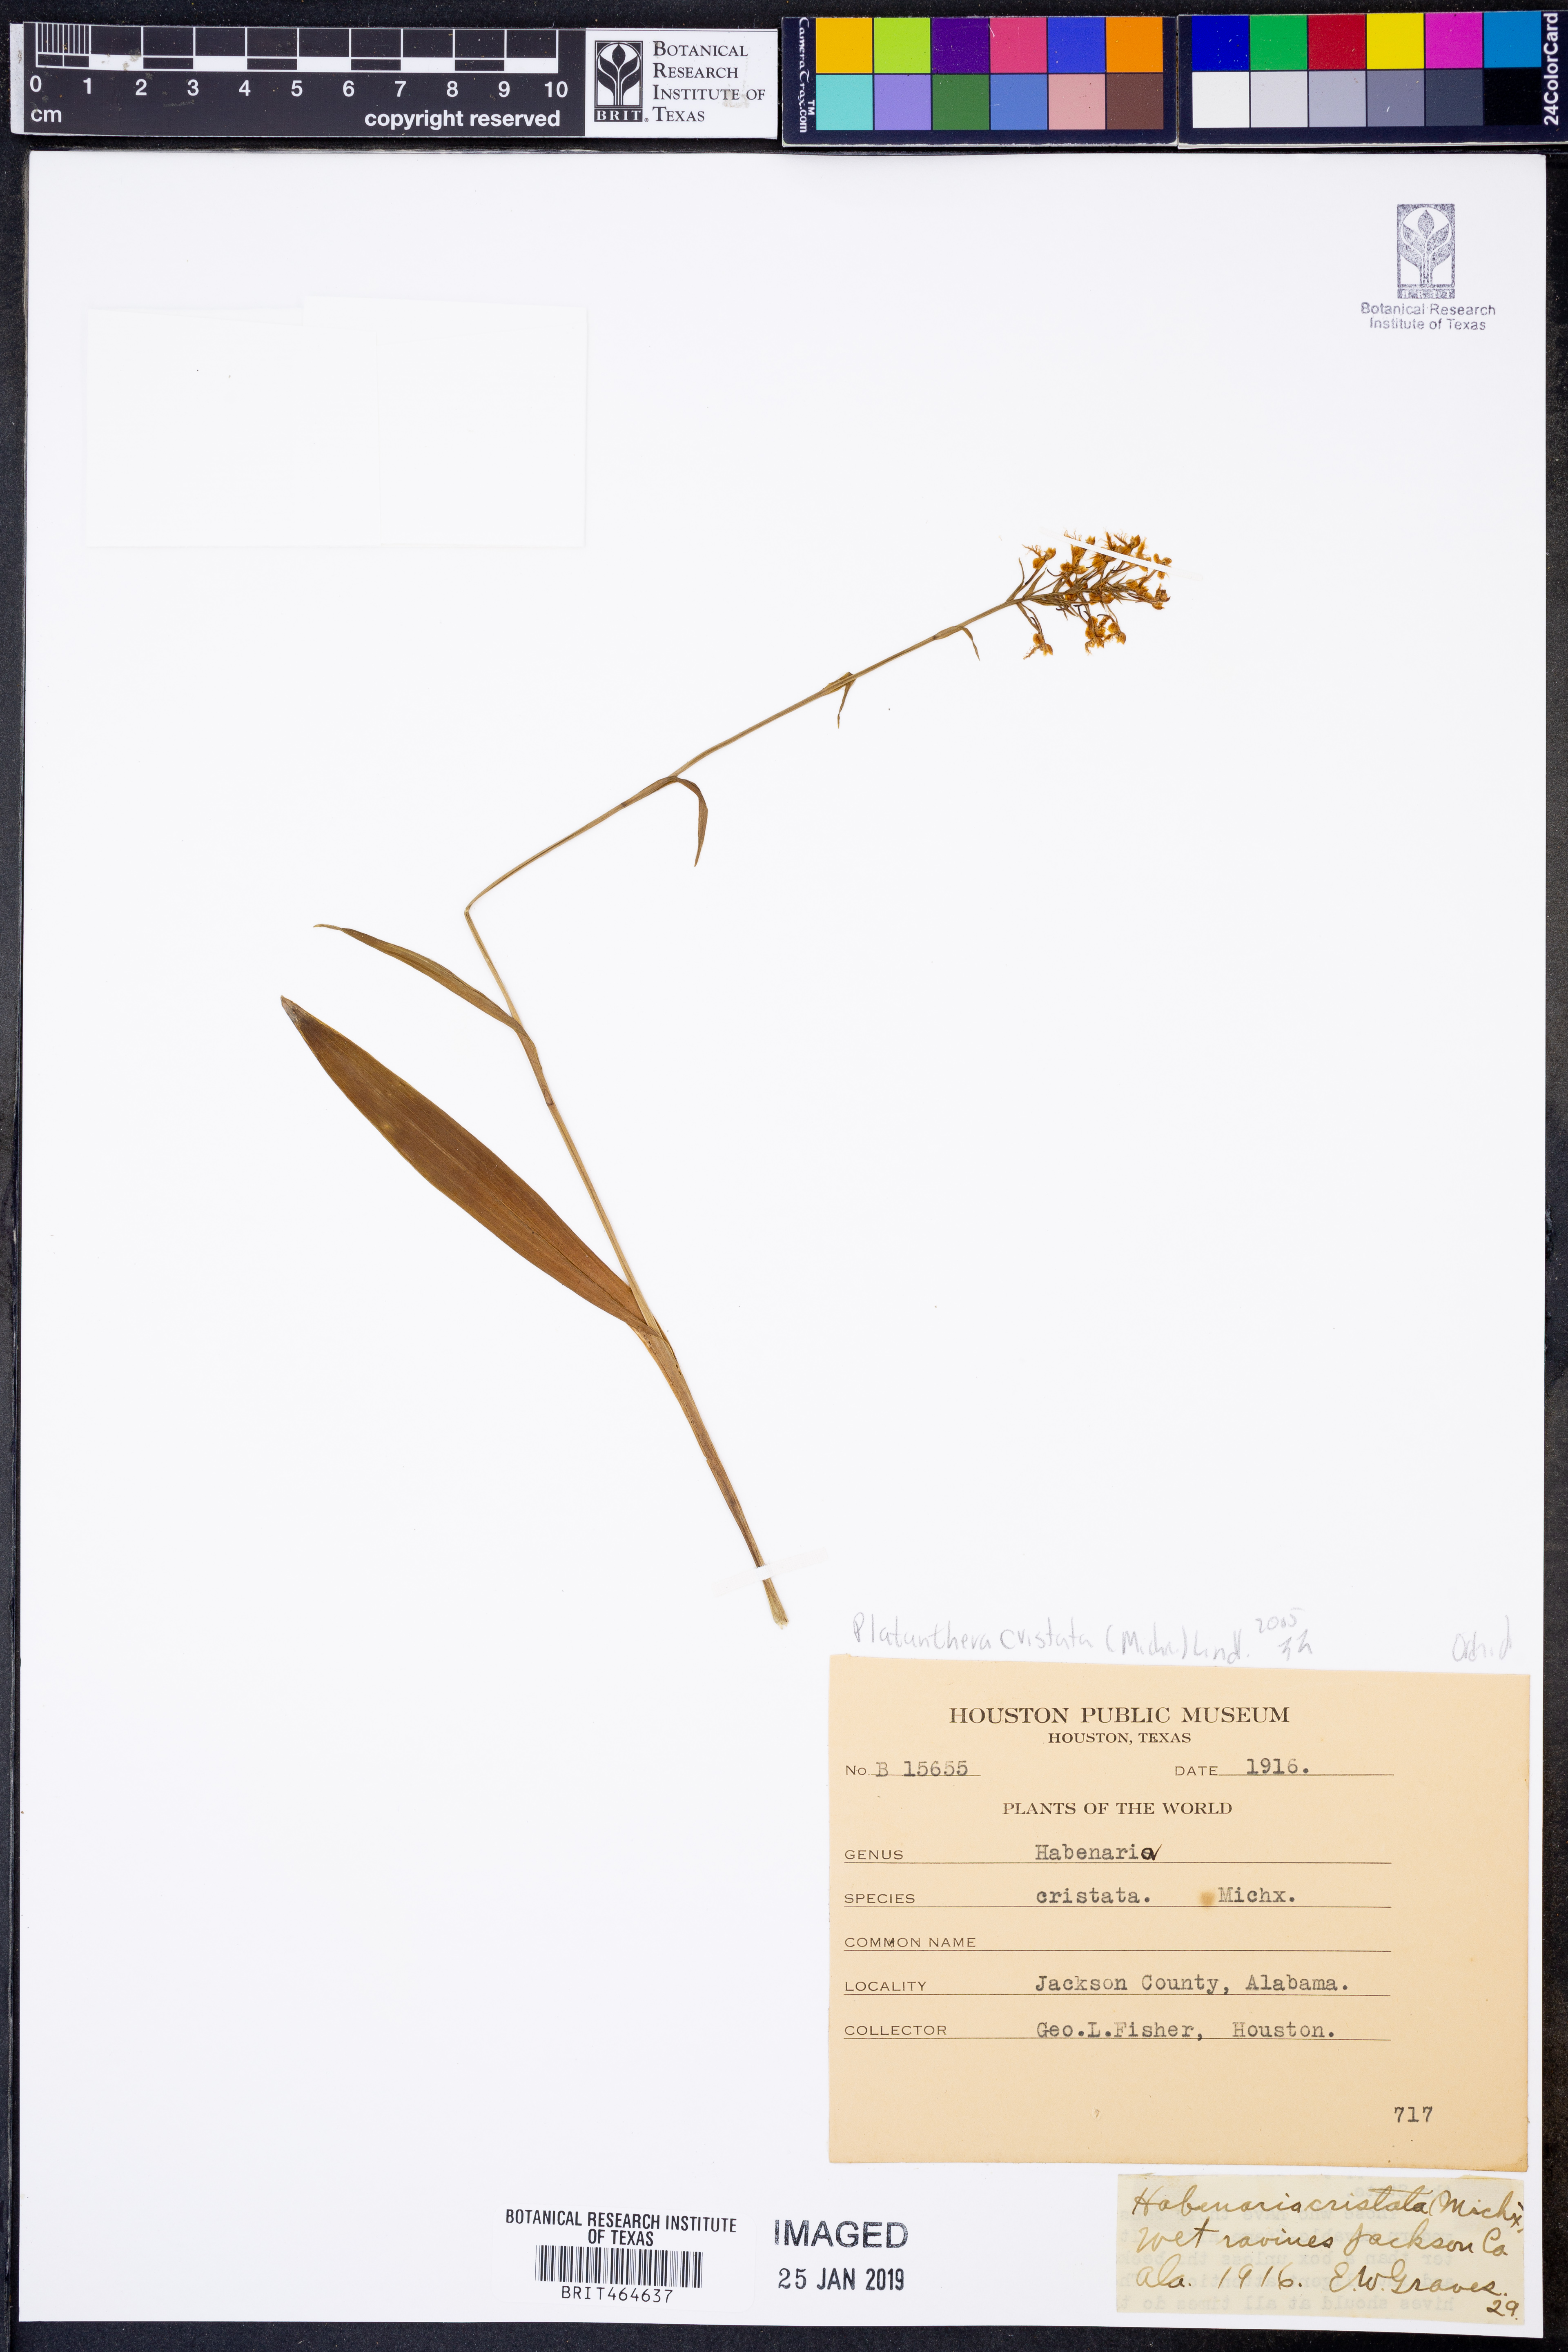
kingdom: Plantae
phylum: Tracheophyta
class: Liliopsida
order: Asparagales
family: Orchidaceae
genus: Platanthera
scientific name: Platanthera cristata
